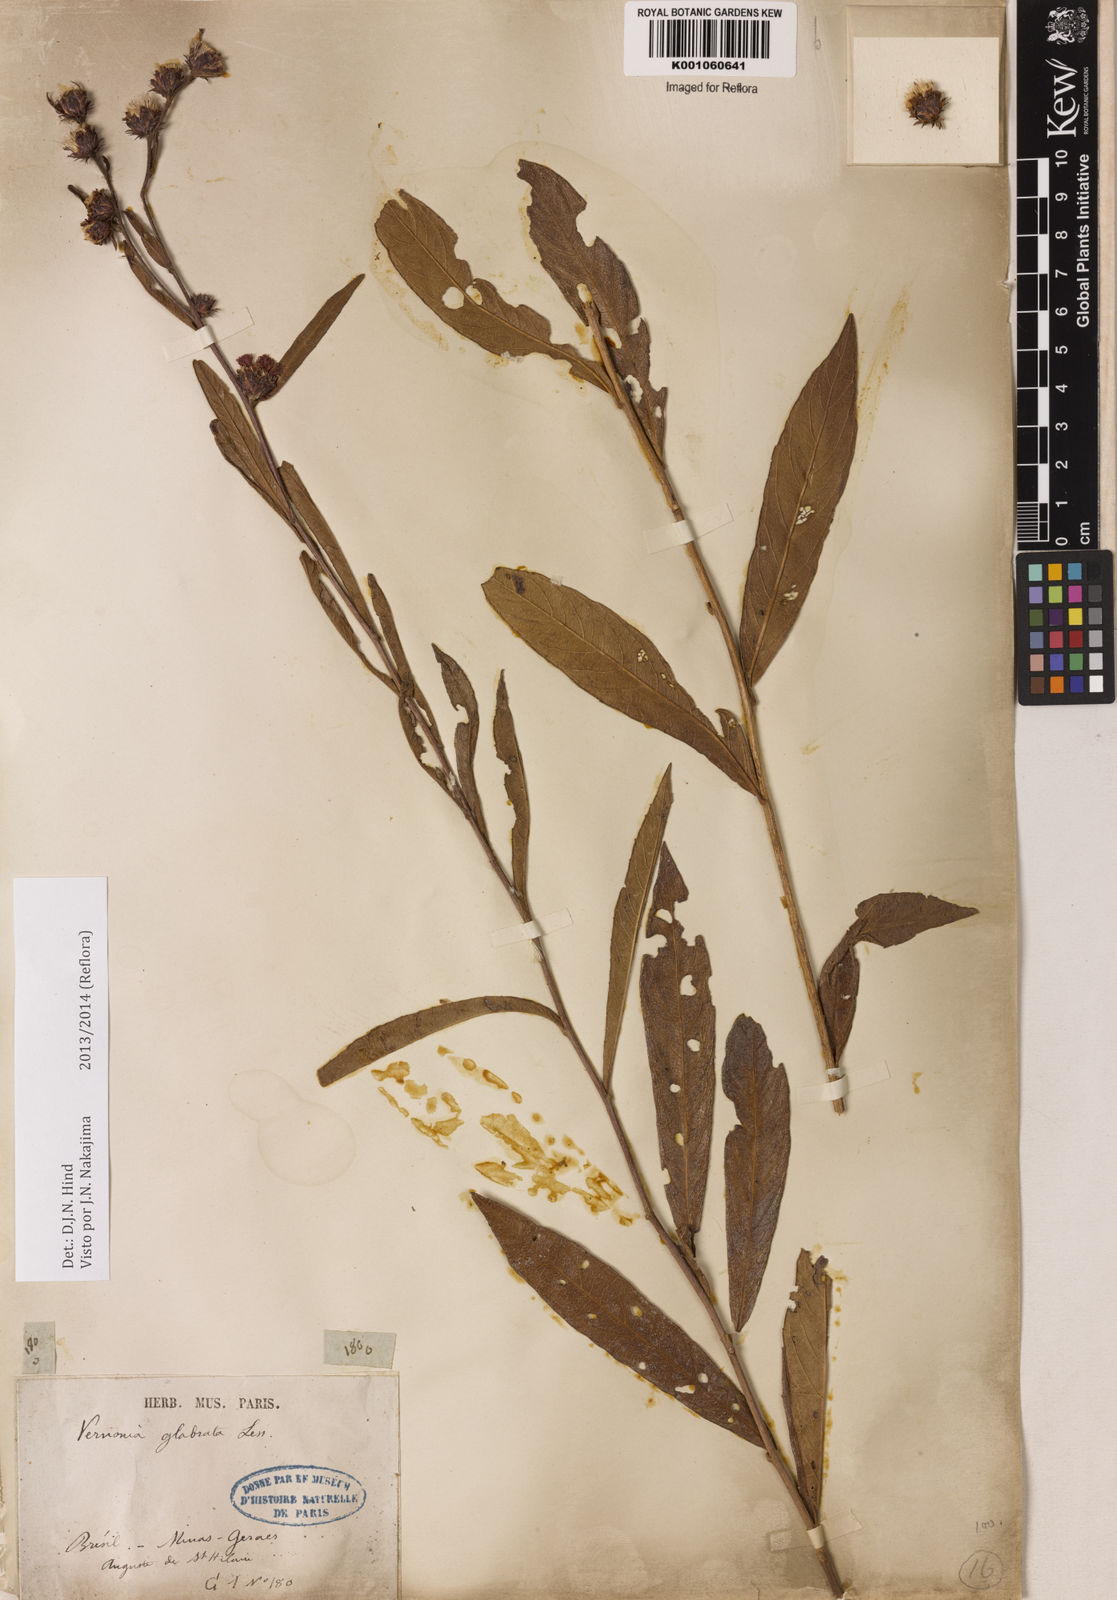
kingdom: Plantae
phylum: Tracheophyta
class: Magnoliopsida
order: Asterales
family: Asteraceae
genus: Lessingianthus
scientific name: Lessingianthus glabratus
